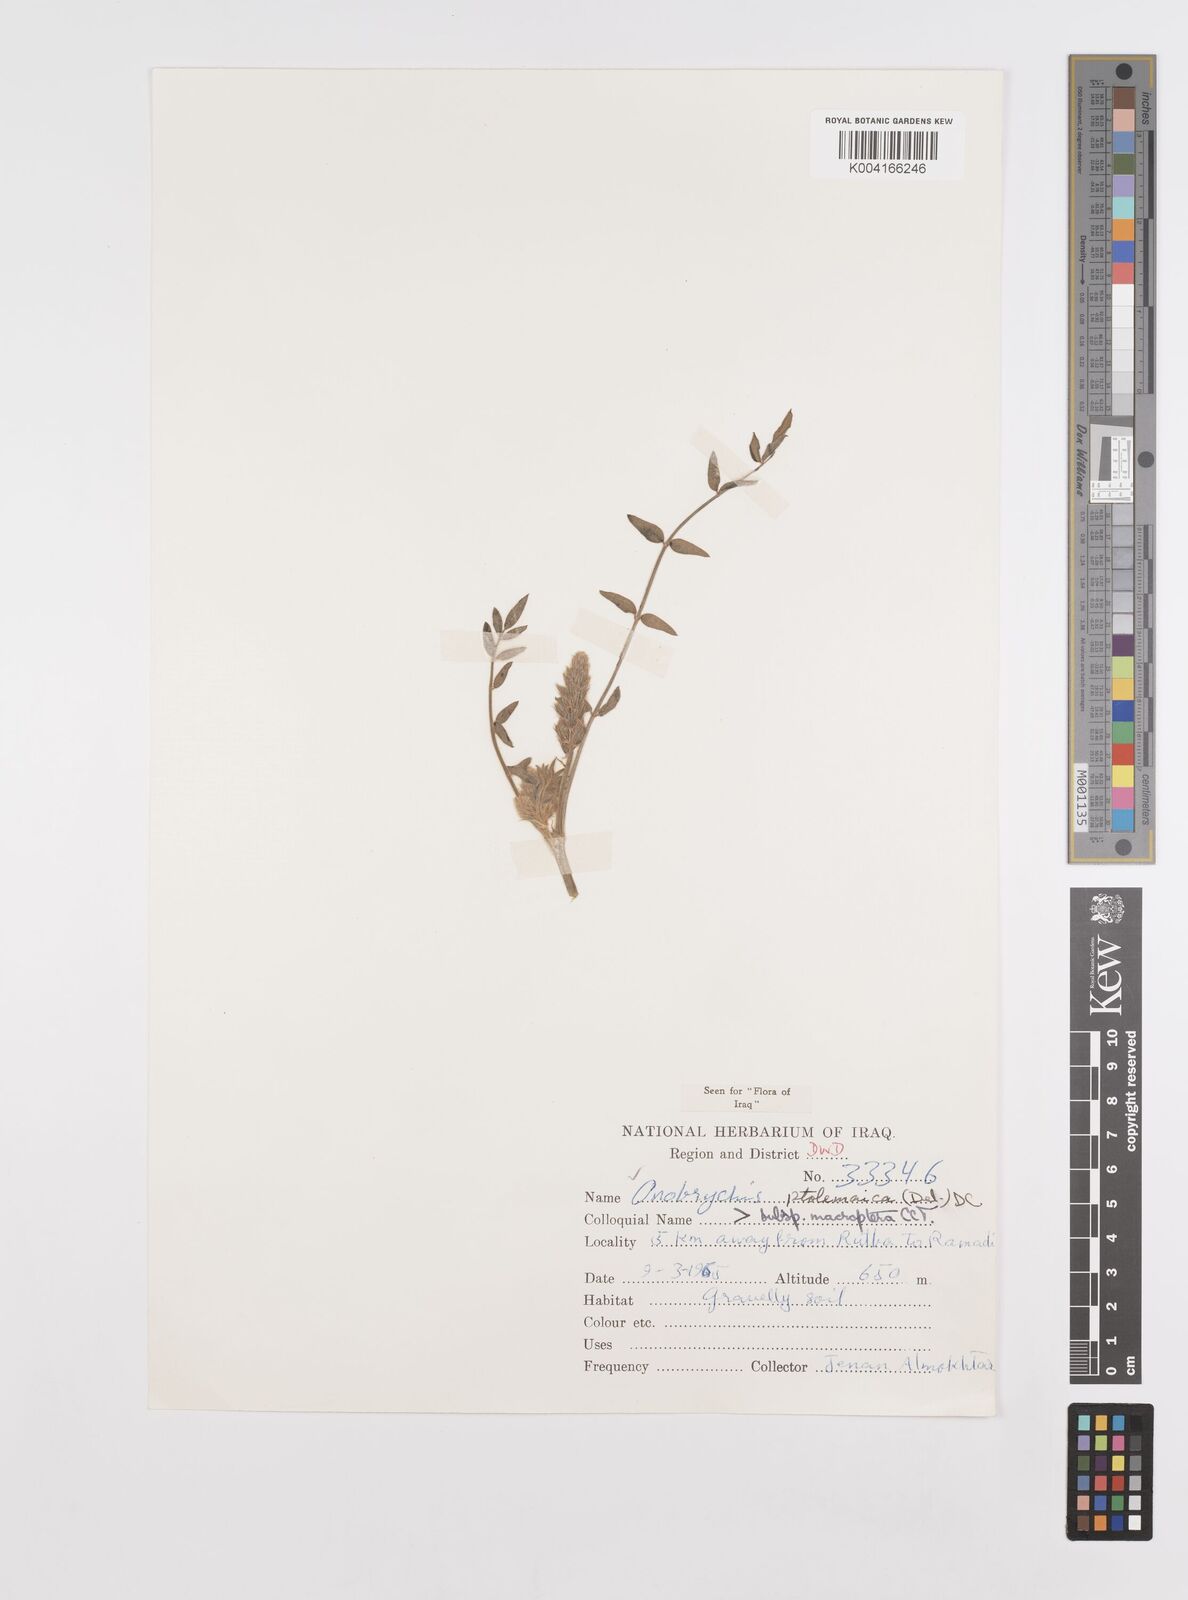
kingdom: Plantae
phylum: Tracheophyta
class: Magnoliopsida
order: Fabales
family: Fabaceae
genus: Onobrychis
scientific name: Onobrychis ptolemaica
